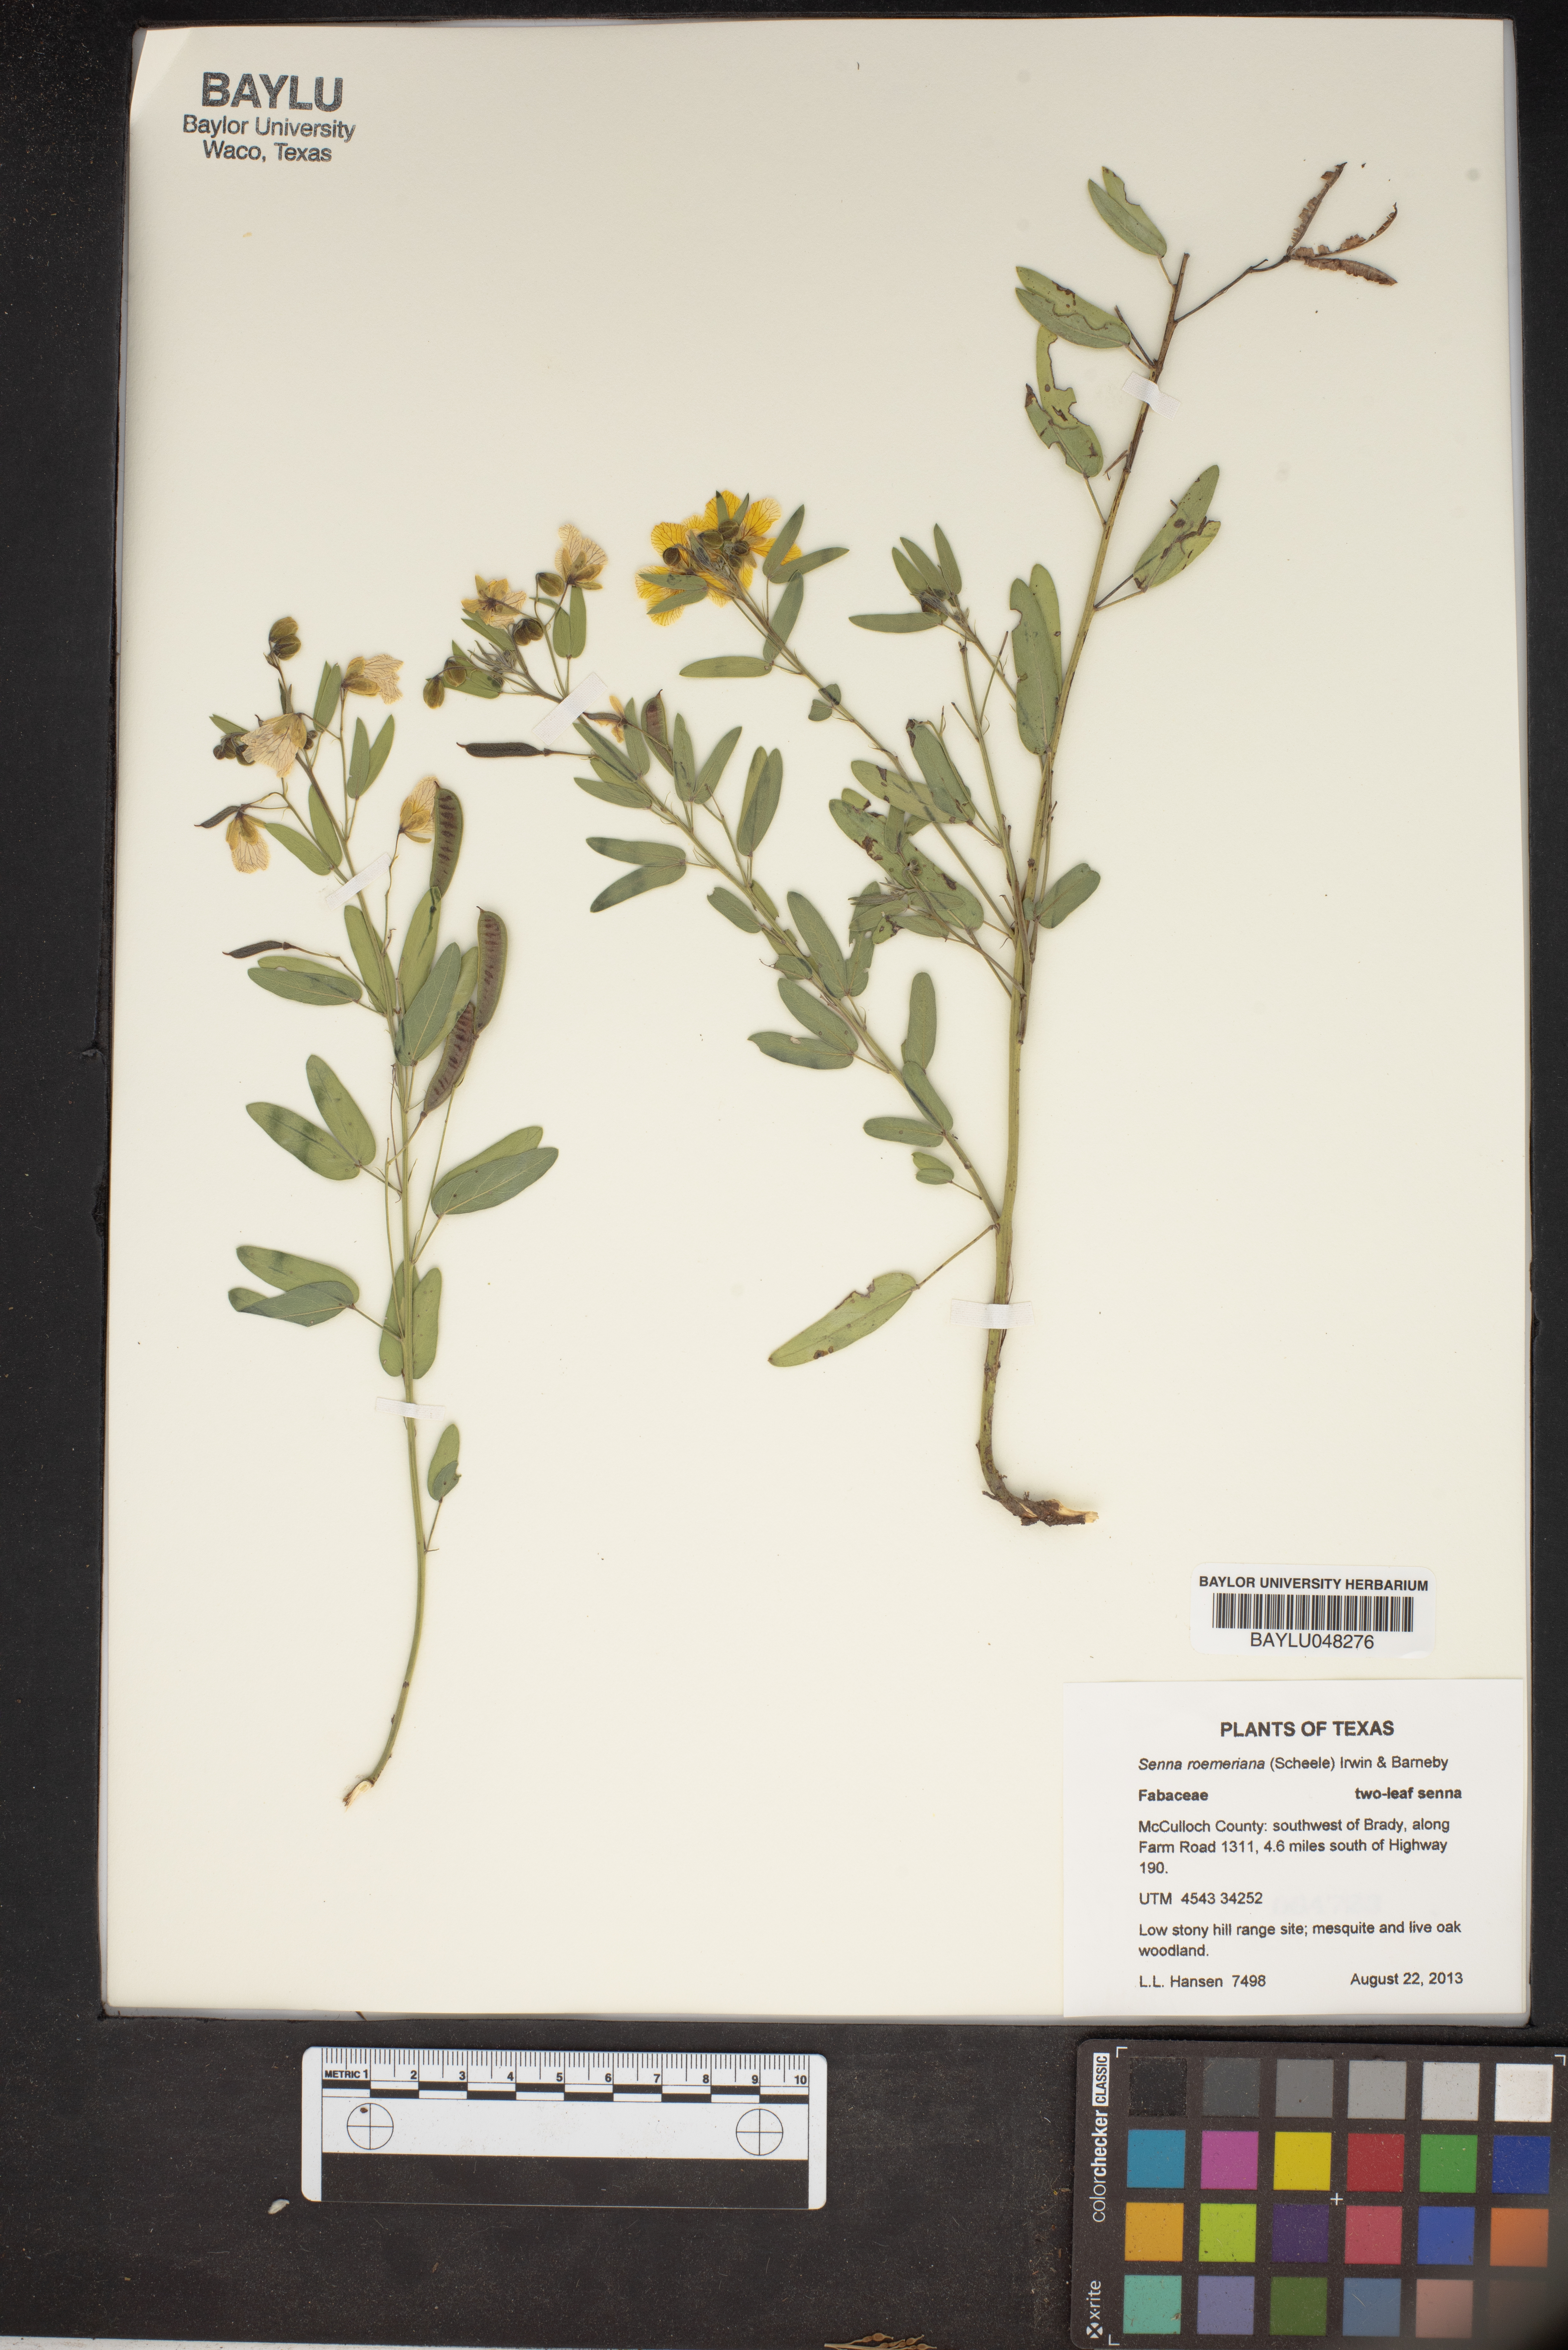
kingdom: Plantae
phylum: Tracheophyta
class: Magnoliopsida
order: Fabales
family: Fabaceae
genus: Senna
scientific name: Senna roemeriana
